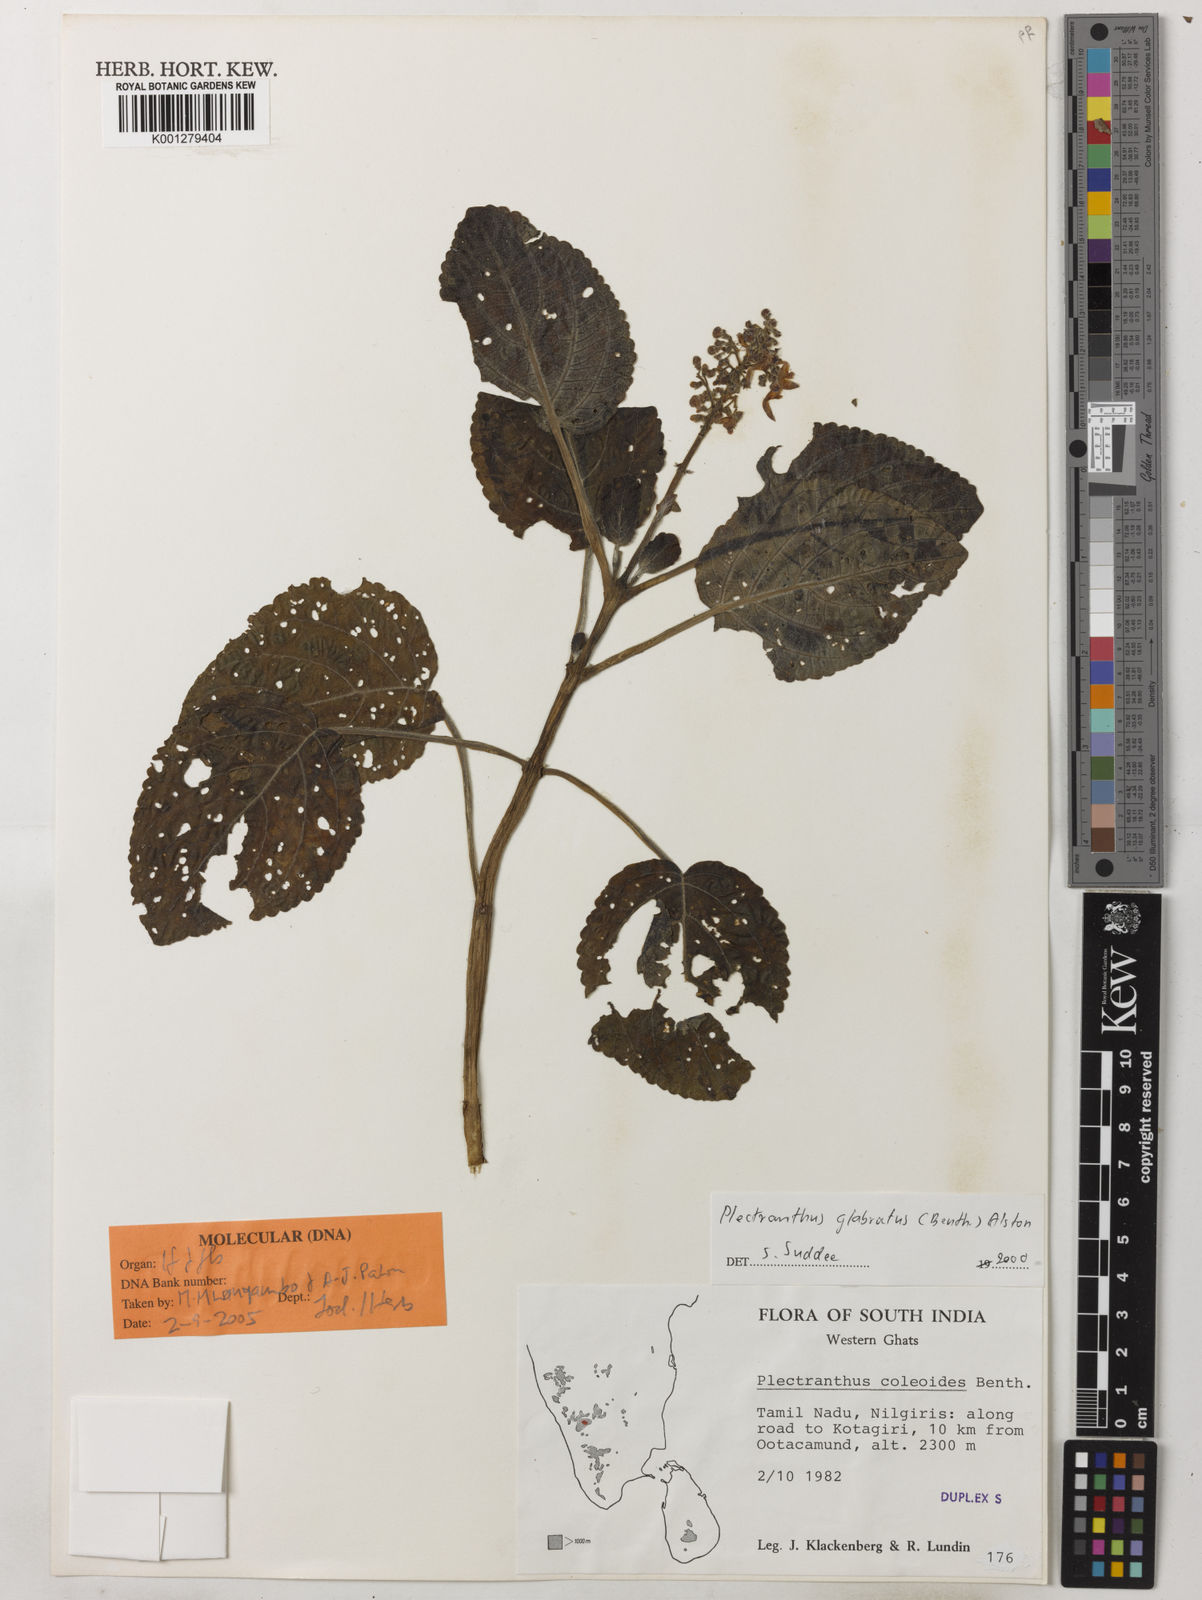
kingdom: Plantae
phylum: Tracheophyta
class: Magnoliopsida
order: Lamiales
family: Lamiaceae
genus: Coleus
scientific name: Coleus paniculatus
